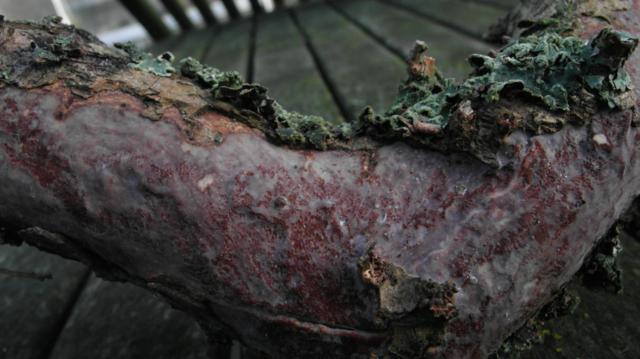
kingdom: Fungi
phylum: Basidiomycota
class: Agaricomycetes
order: Corticiales
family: Vuilleminiaceae
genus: Vuilleminia
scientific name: Vuilleminia comedens
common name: almindelig barksprænger
